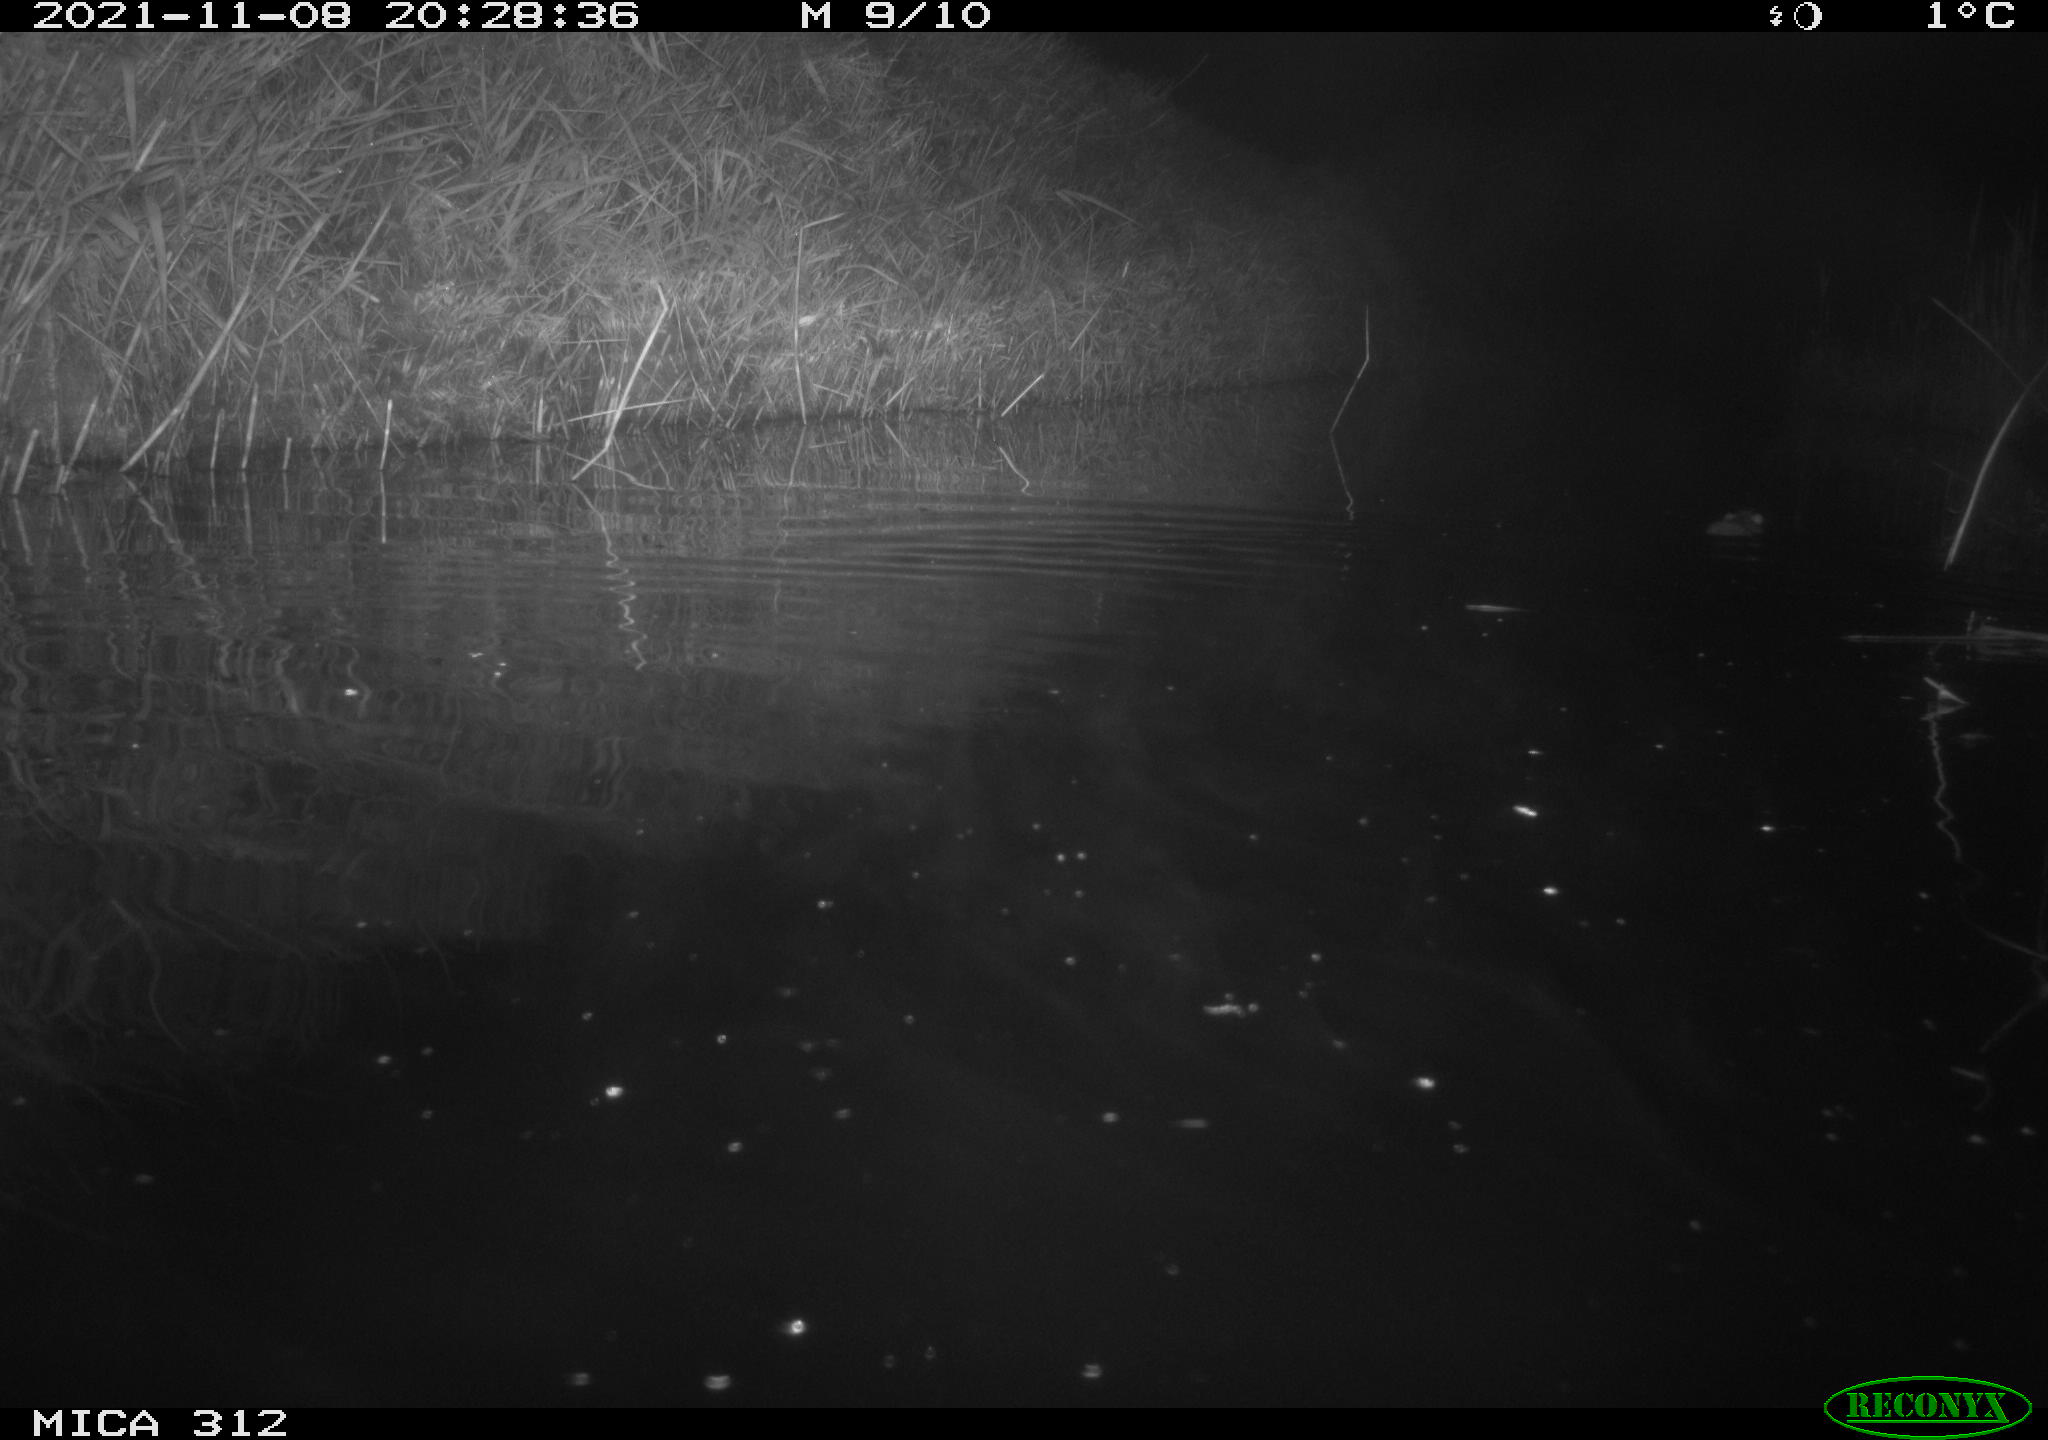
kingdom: Animalia
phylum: Chordata
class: Mammalia
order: Rodentia
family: Muridae
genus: Rattus
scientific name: Rattus norvegicus
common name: Brown rat
